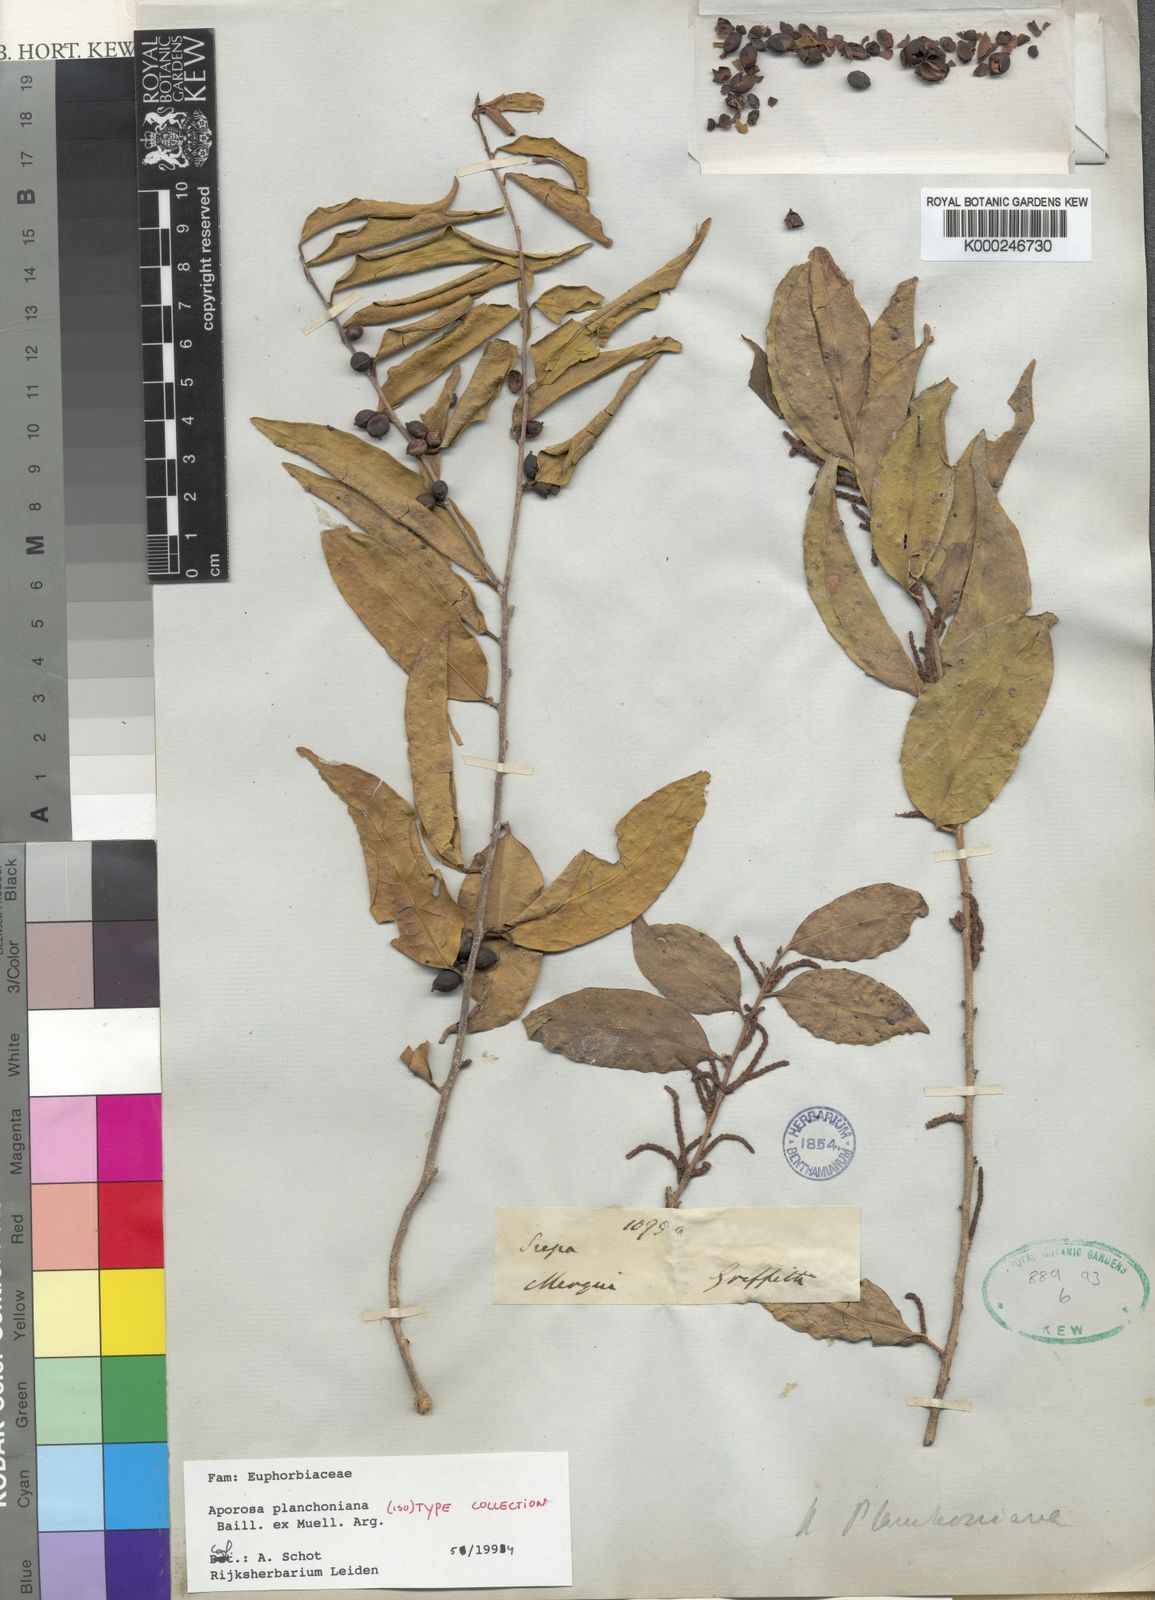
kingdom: Plantae
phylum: Tracheophyta
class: Magnoliopsida
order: Malpighiales
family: Phyllanthaceae
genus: Aporosa
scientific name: Aporosa
